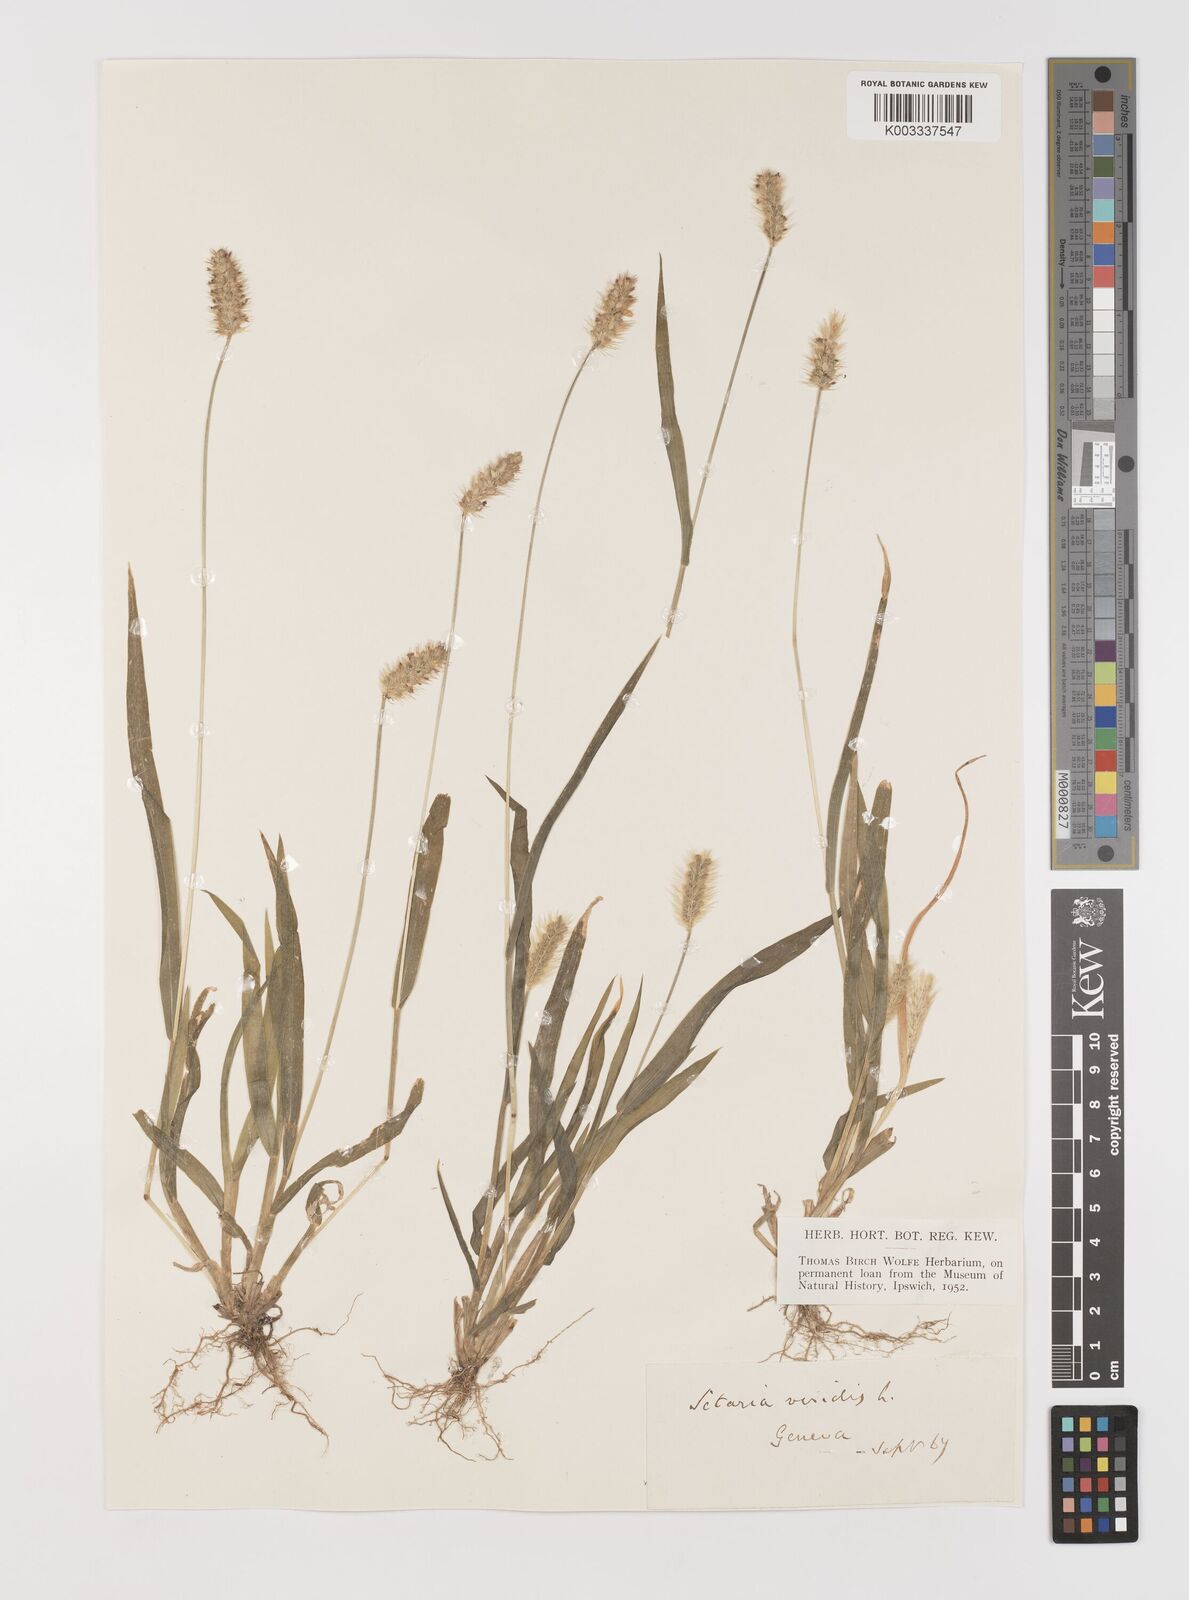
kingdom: Plantae
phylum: Tracheophyta
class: Liliopsida
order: Poales
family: Poaceae
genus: Setaria
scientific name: Setaria pumila
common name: Yellow bristle-grass
